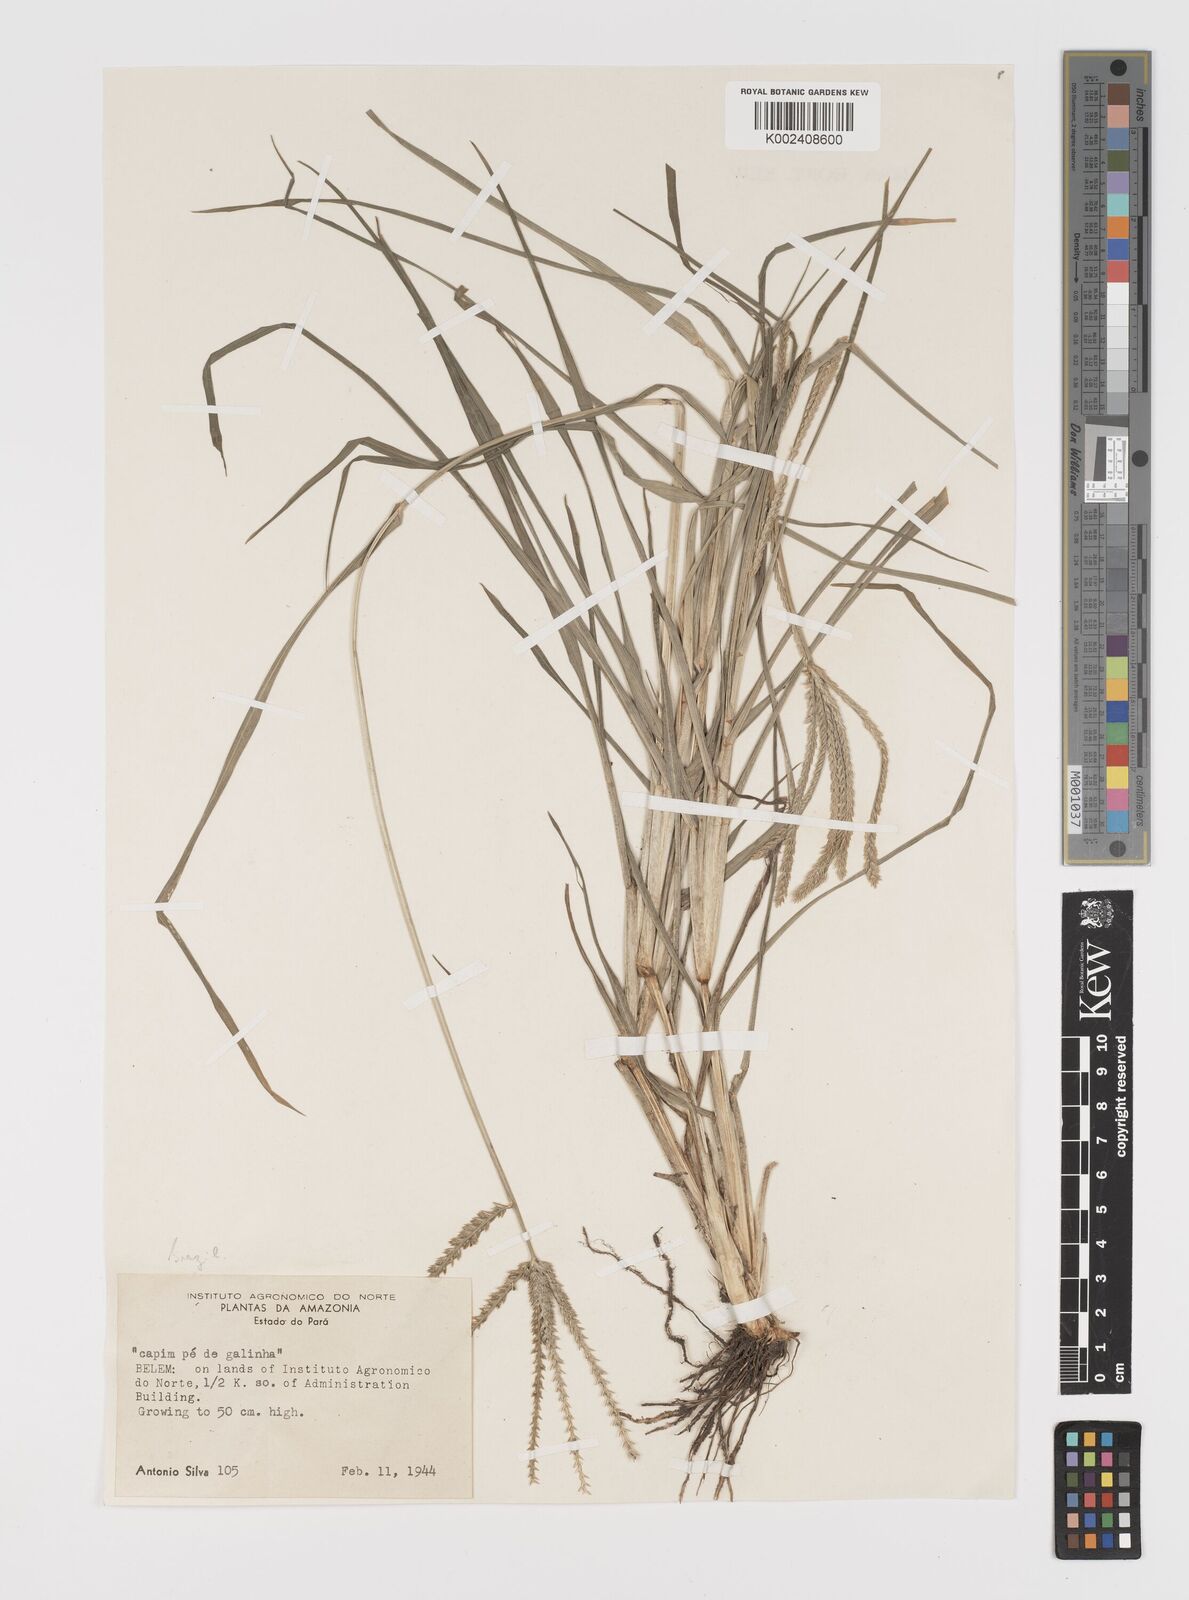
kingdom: Plantae
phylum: Tracheophyta
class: Liliopsida
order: Poales
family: Poaceae
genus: Eleusine
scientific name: Eleusine indica
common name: Yard-grass
